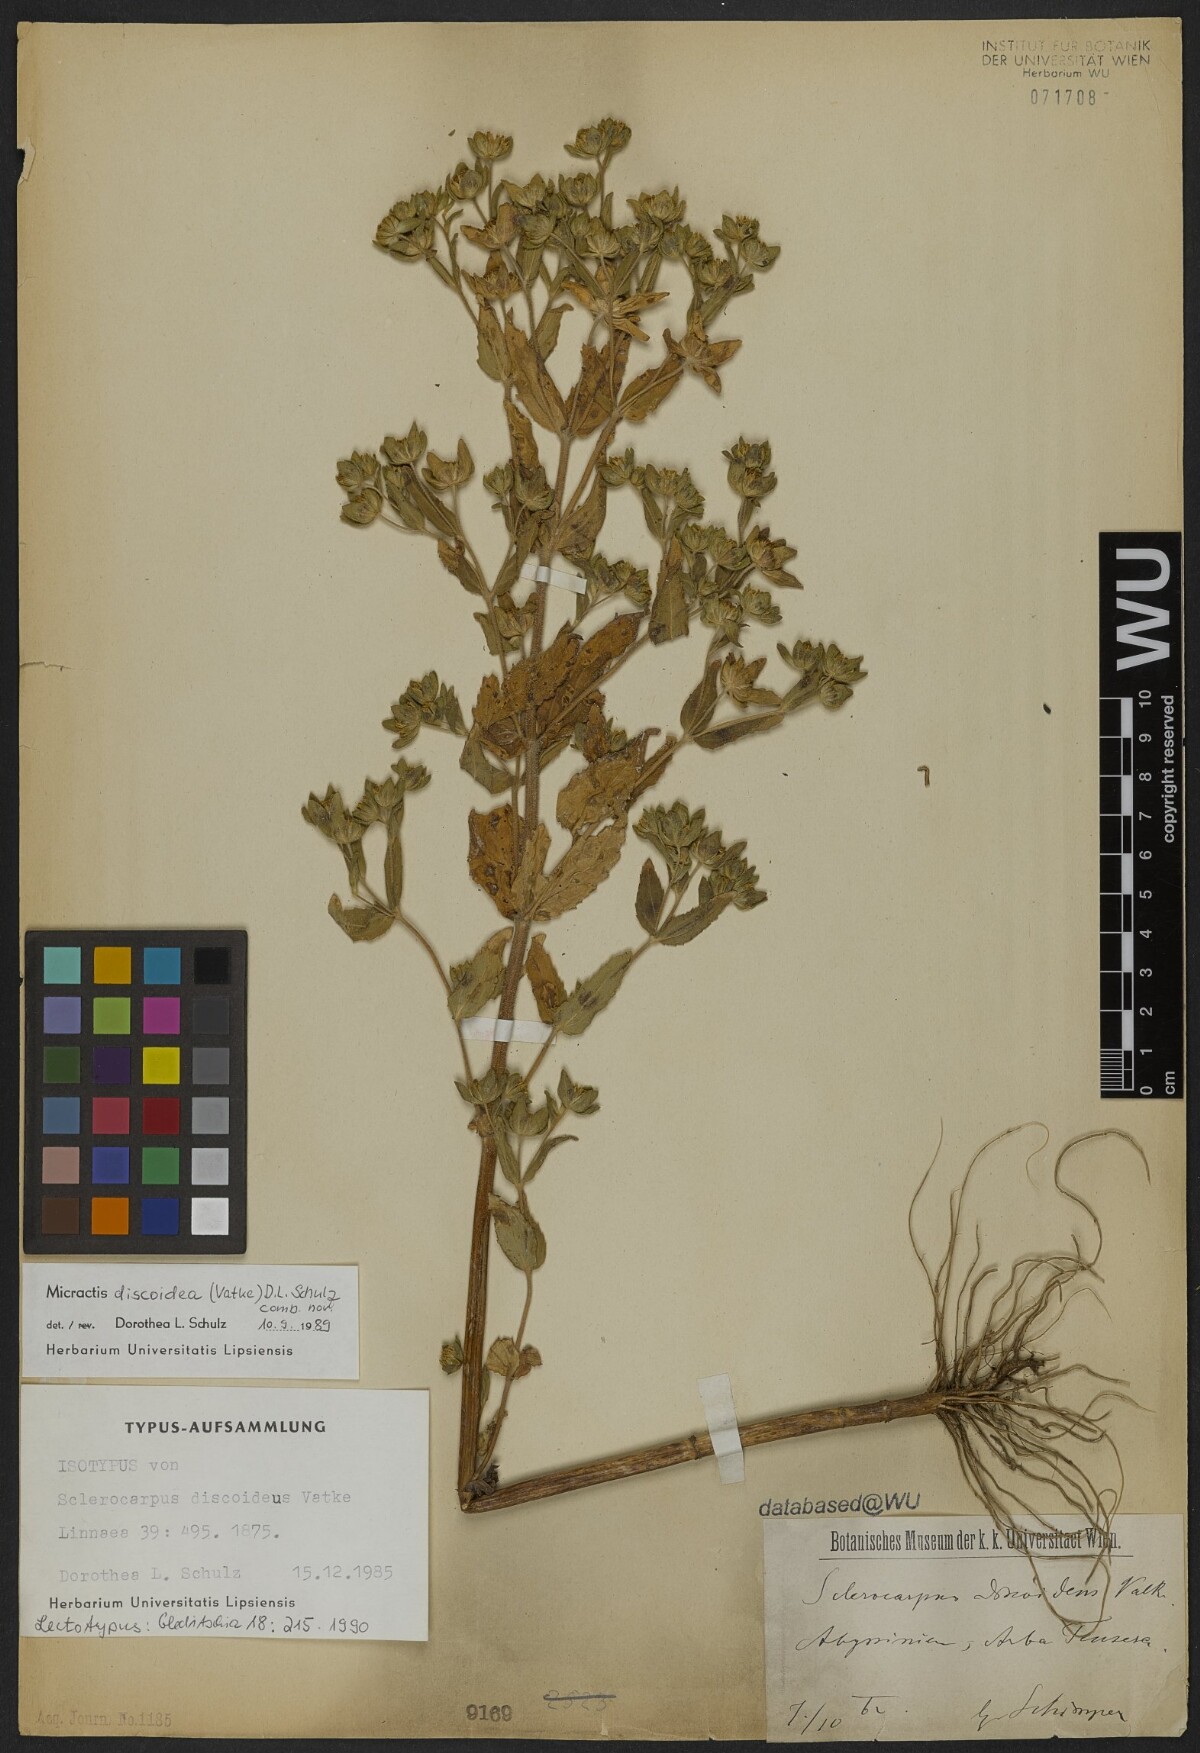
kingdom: Plantae
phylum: Tracheophyta
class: Magnoliopsida
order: Asterales
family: Asteraceae
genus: Micractis
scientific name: Micractis discoidea
